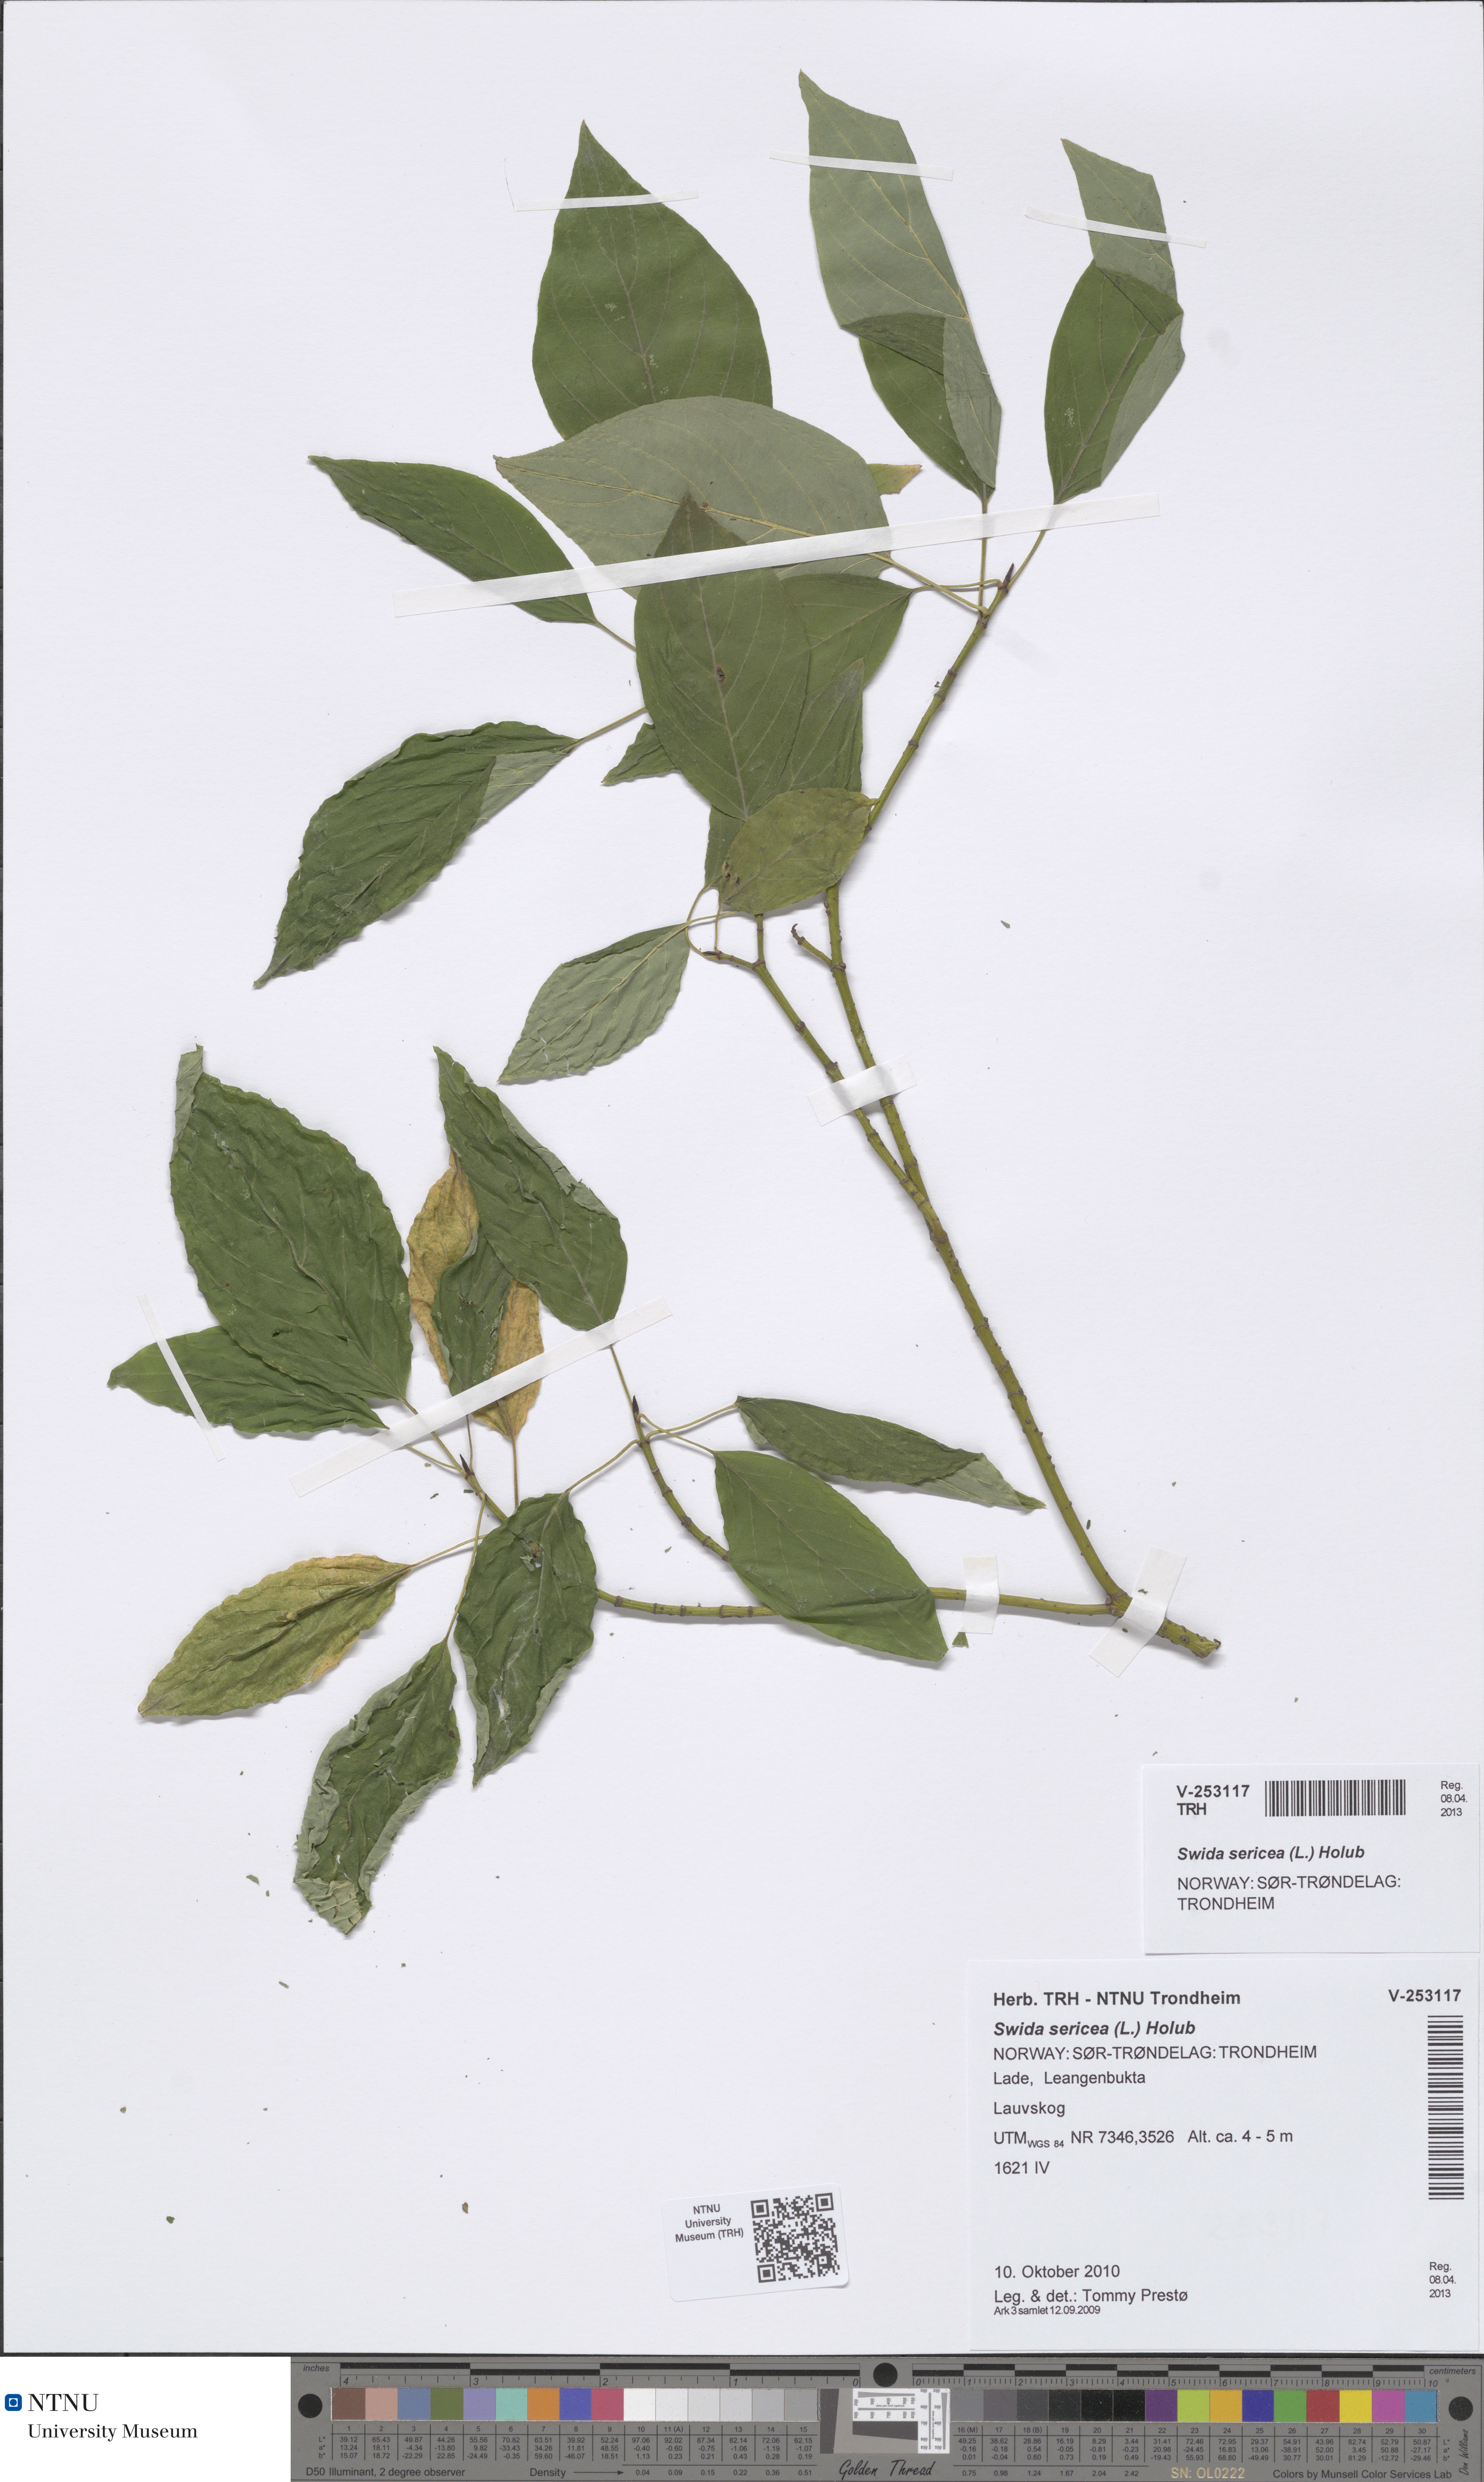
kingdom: Plantae
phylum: Tracheophyta
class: Magnoliopsida
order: Cornales
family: Cornaceae
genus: Cornus
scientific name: Cornus sericea
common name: Red-osier dogwood
